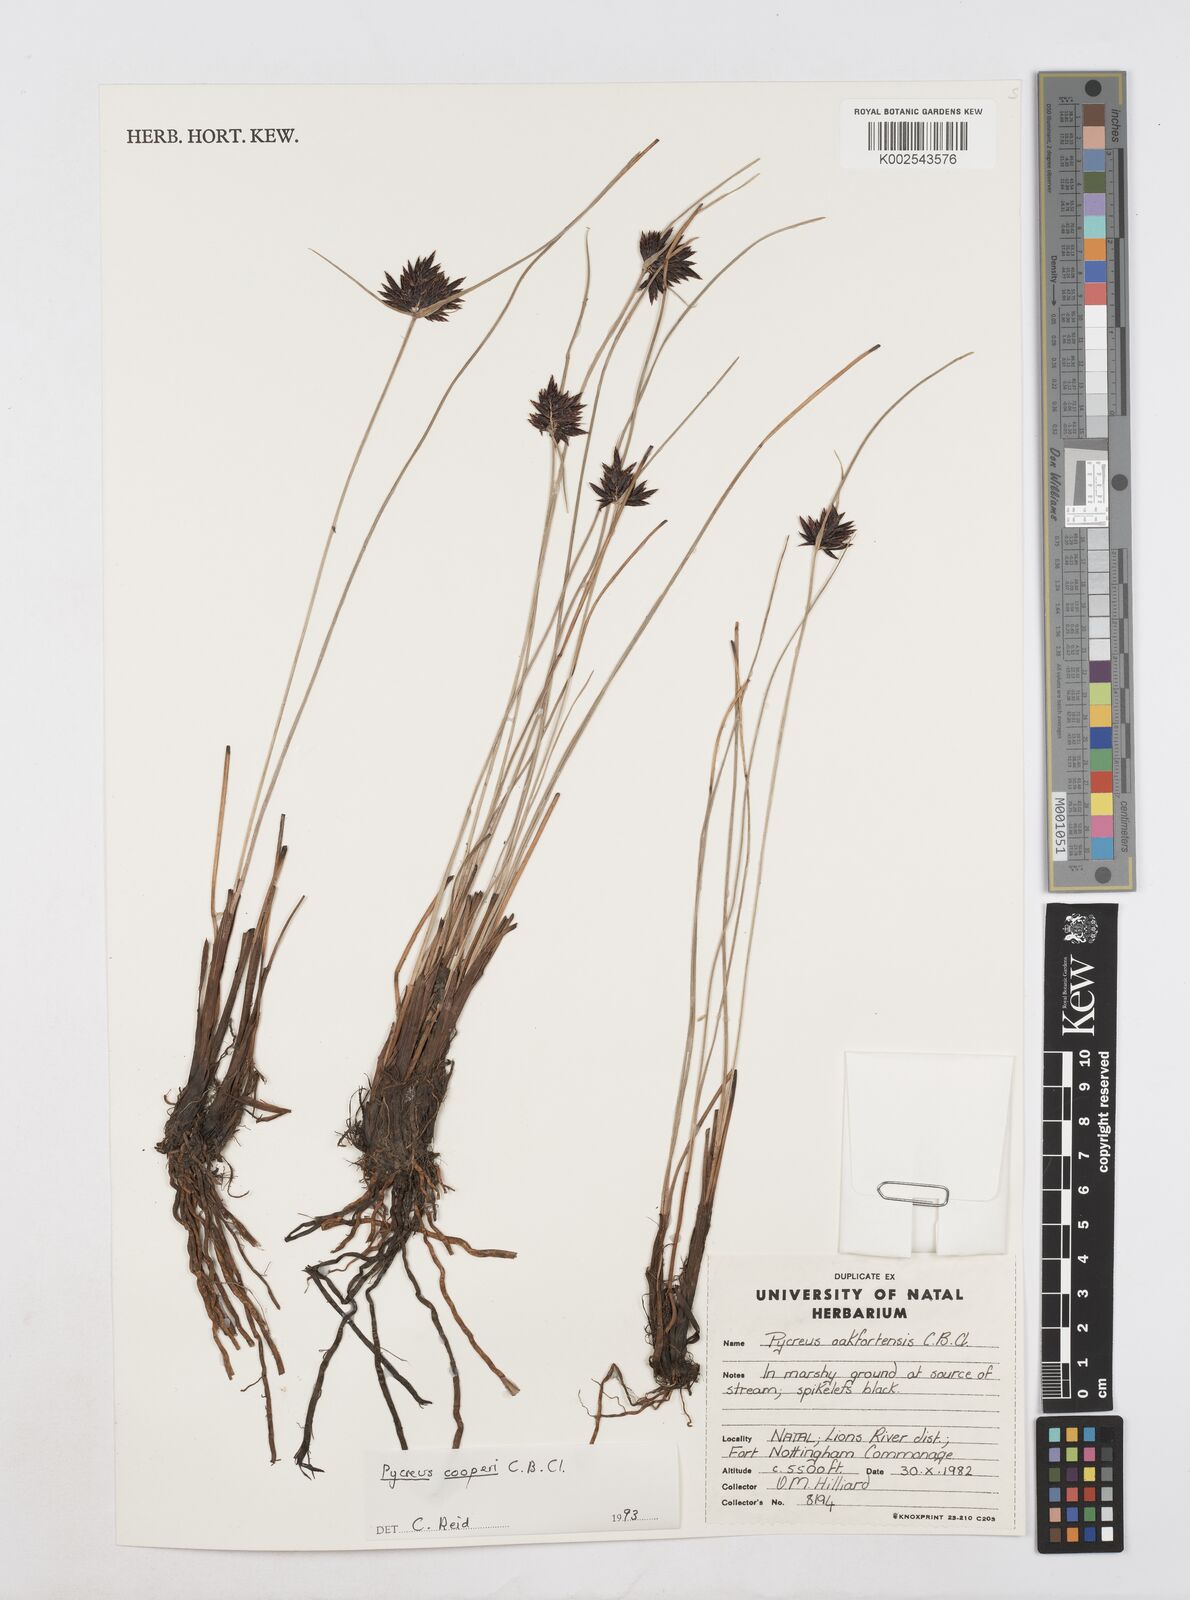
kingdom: Plantae
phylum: Tracheophyta
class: Liliopsida
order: Poales
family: Cyperaceae
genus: Cyperus
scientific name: Cyperus
